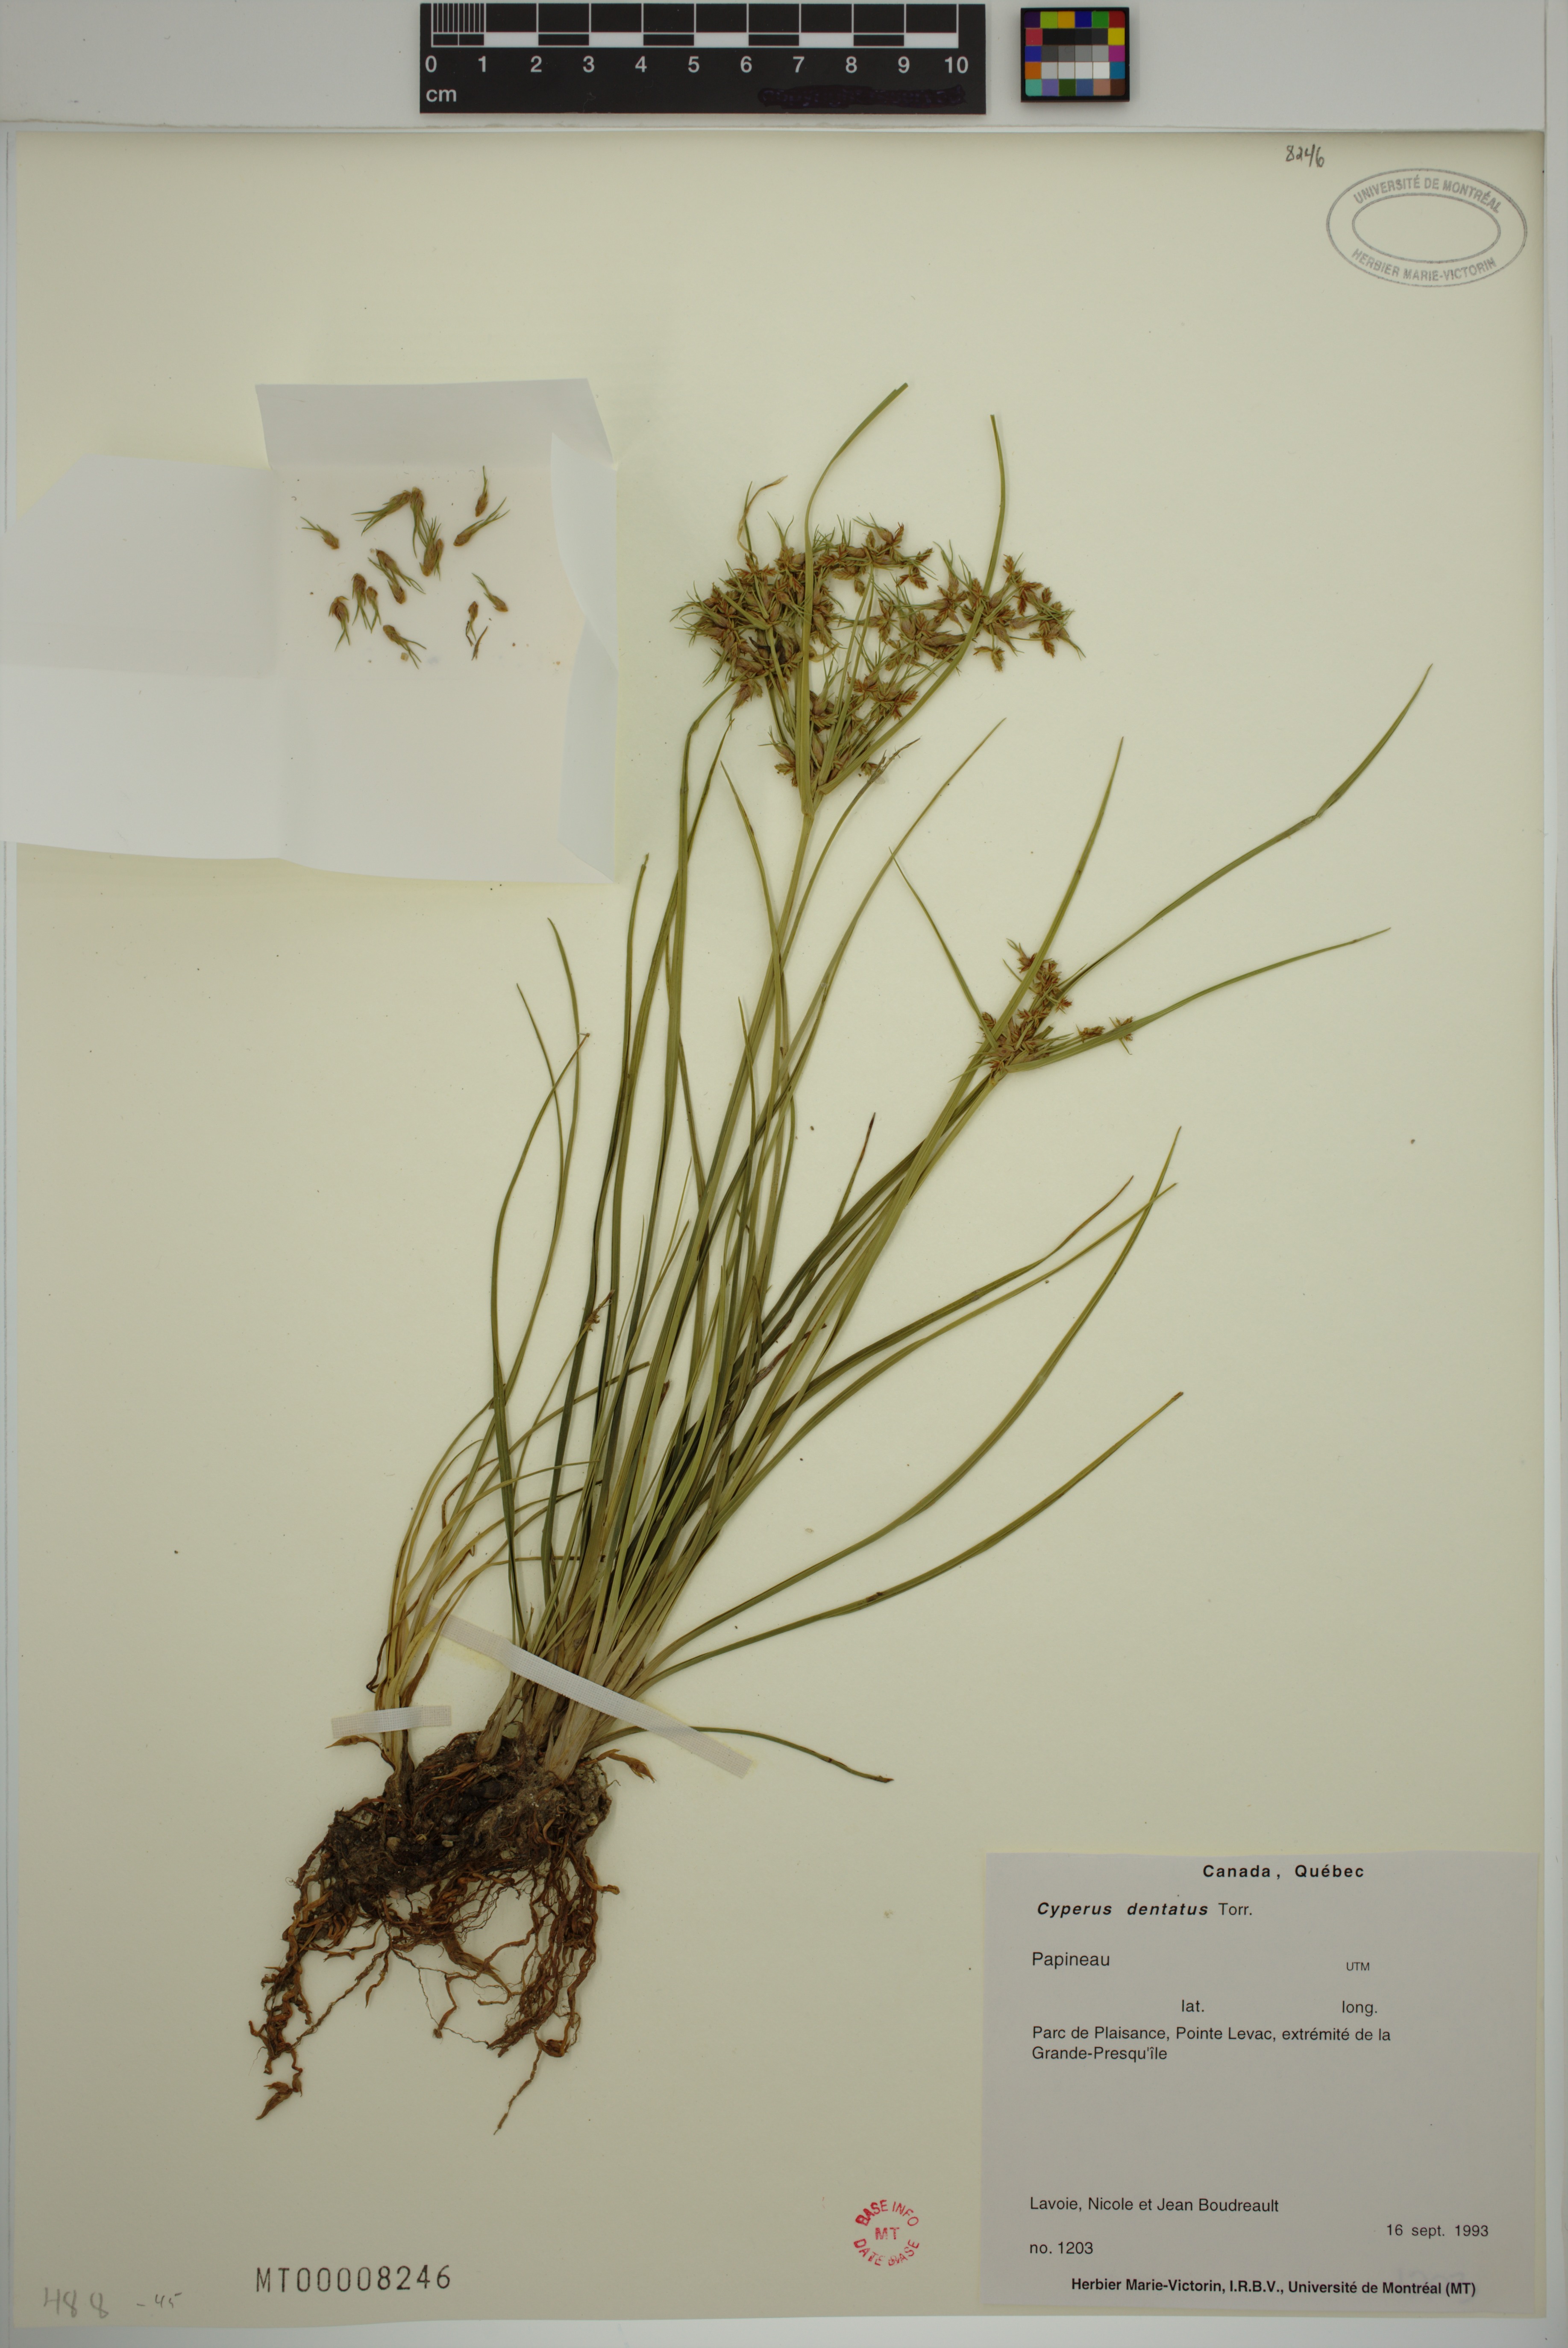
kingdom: Plantae
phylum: Tracheophyta
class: Liliopsida
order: Poales
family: Cyperaceae
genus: Cyperus
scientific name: Cyperus dentatus
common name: Dentate umbrella sedge
